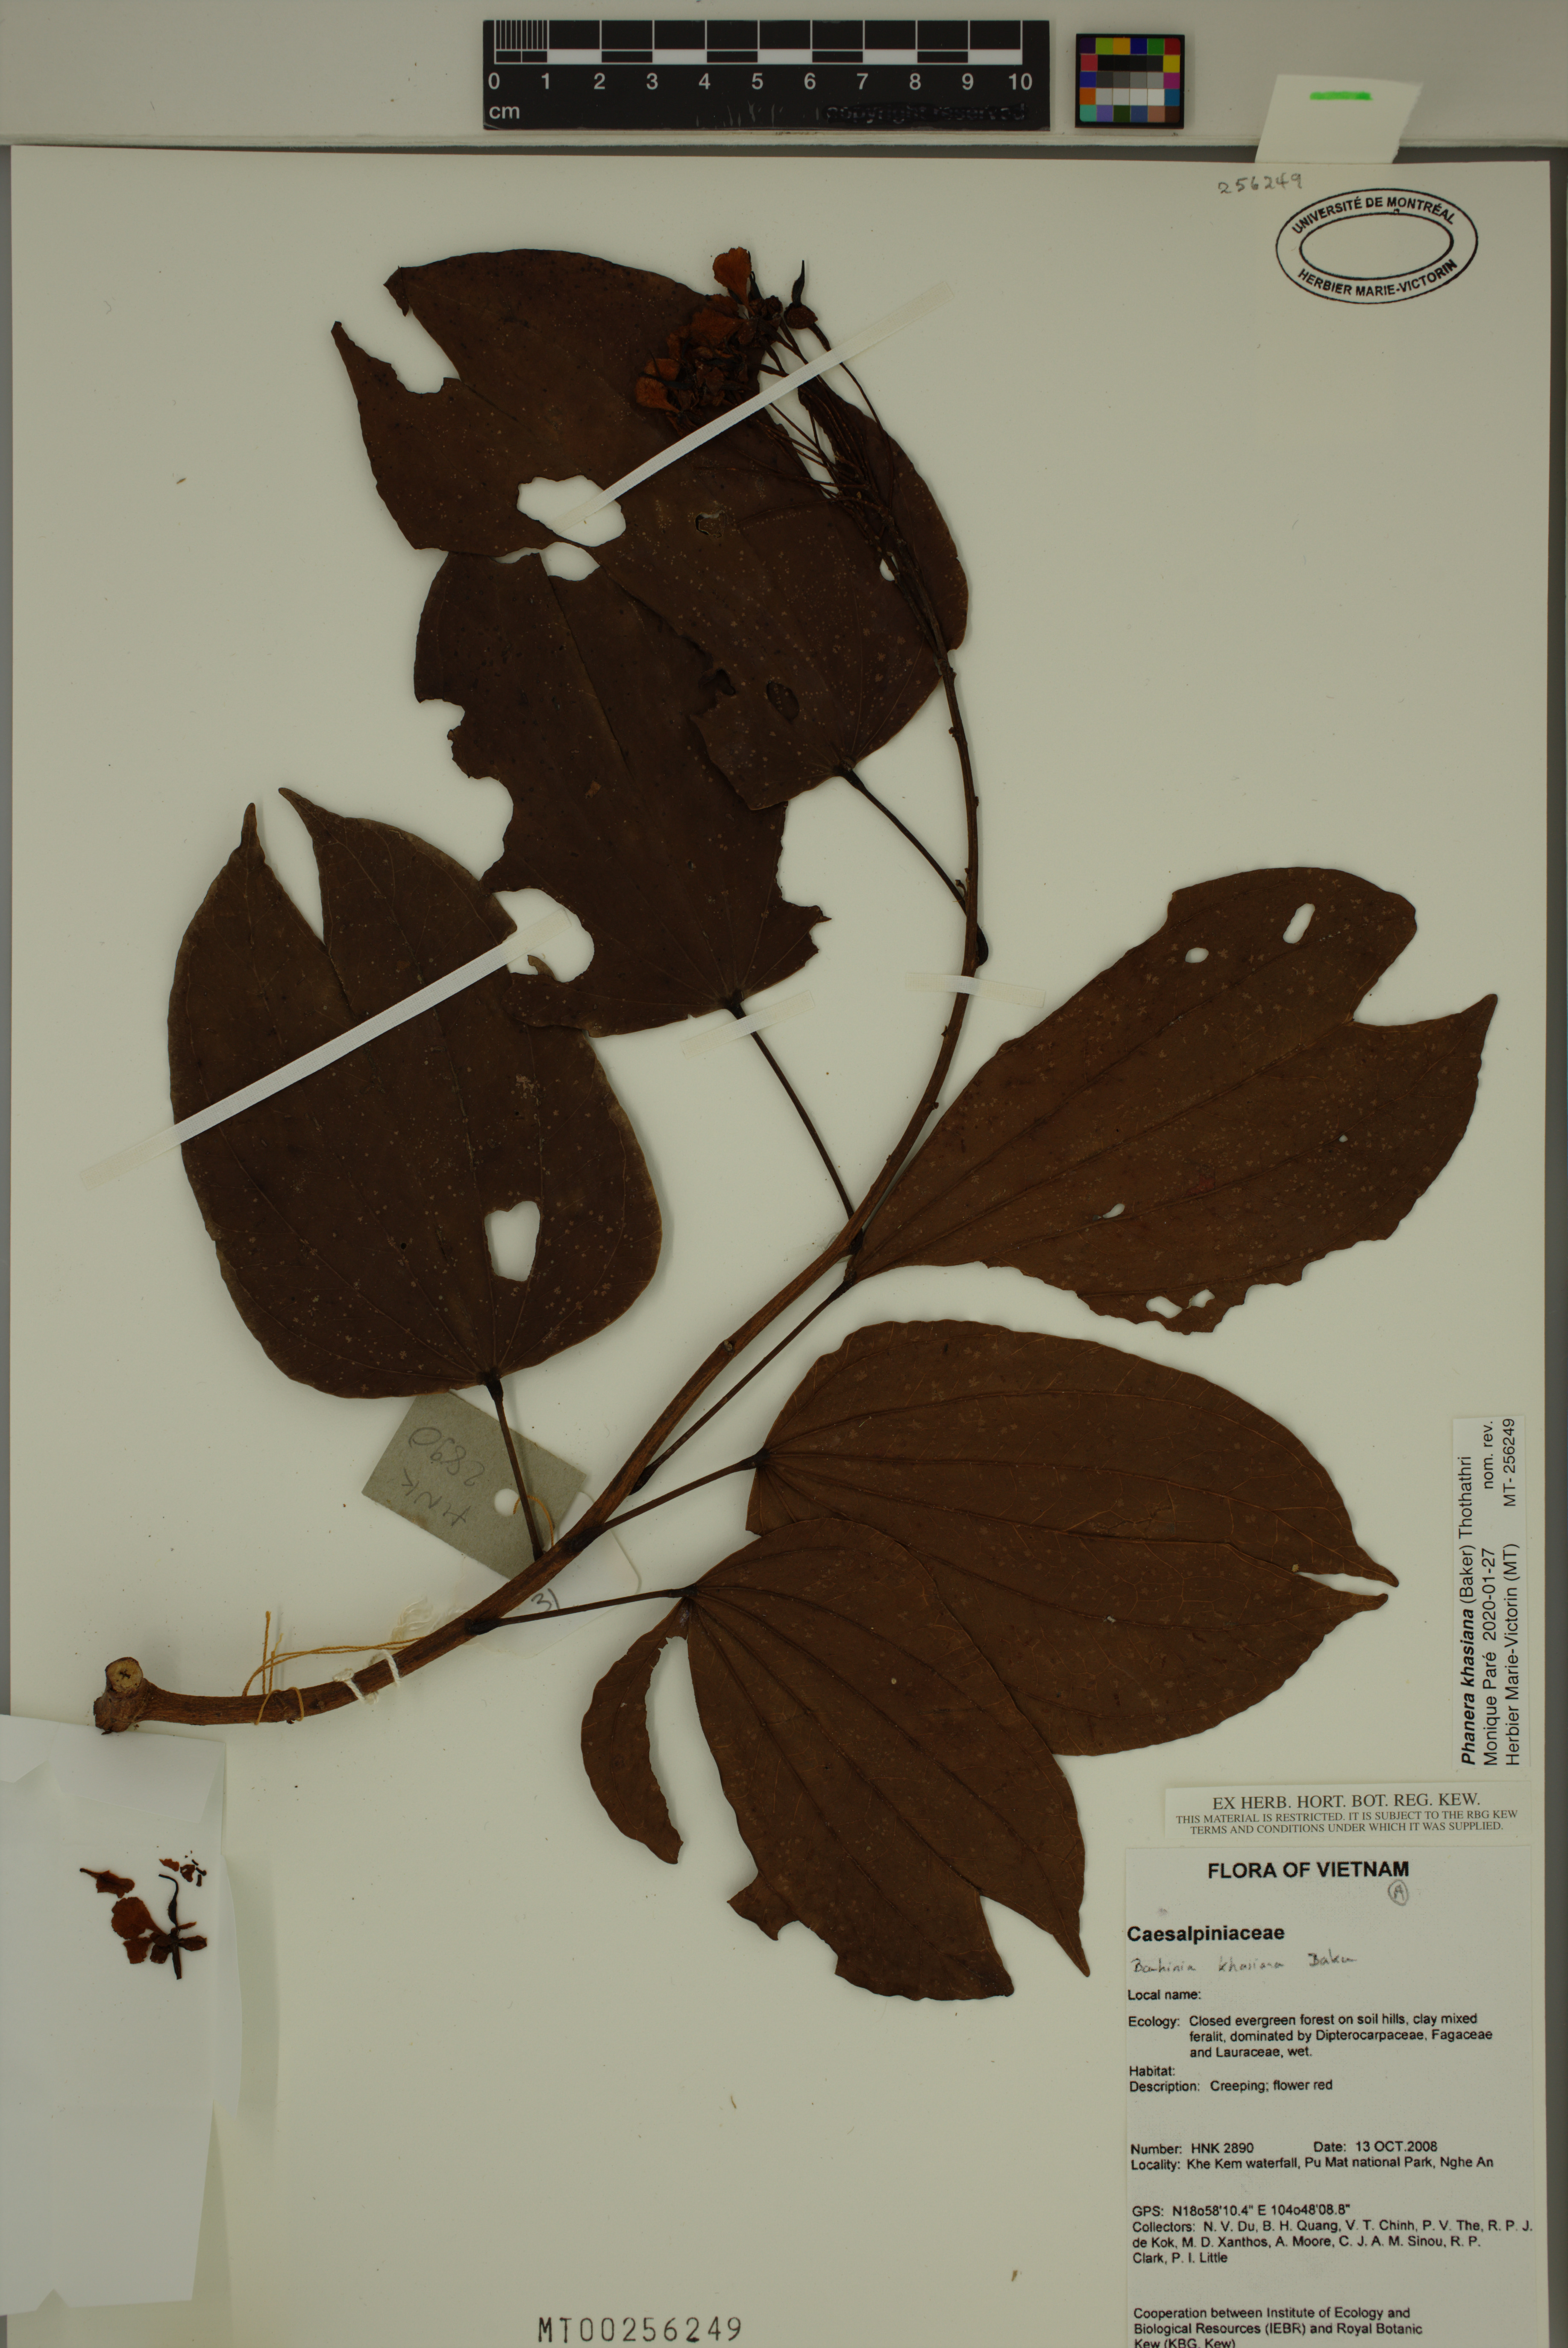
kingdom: Plantae
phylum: Tracheophyta
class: Magnoliopsida
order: Fabales
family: Fabaceae
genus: Phanera
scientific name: Phanera khasiana
